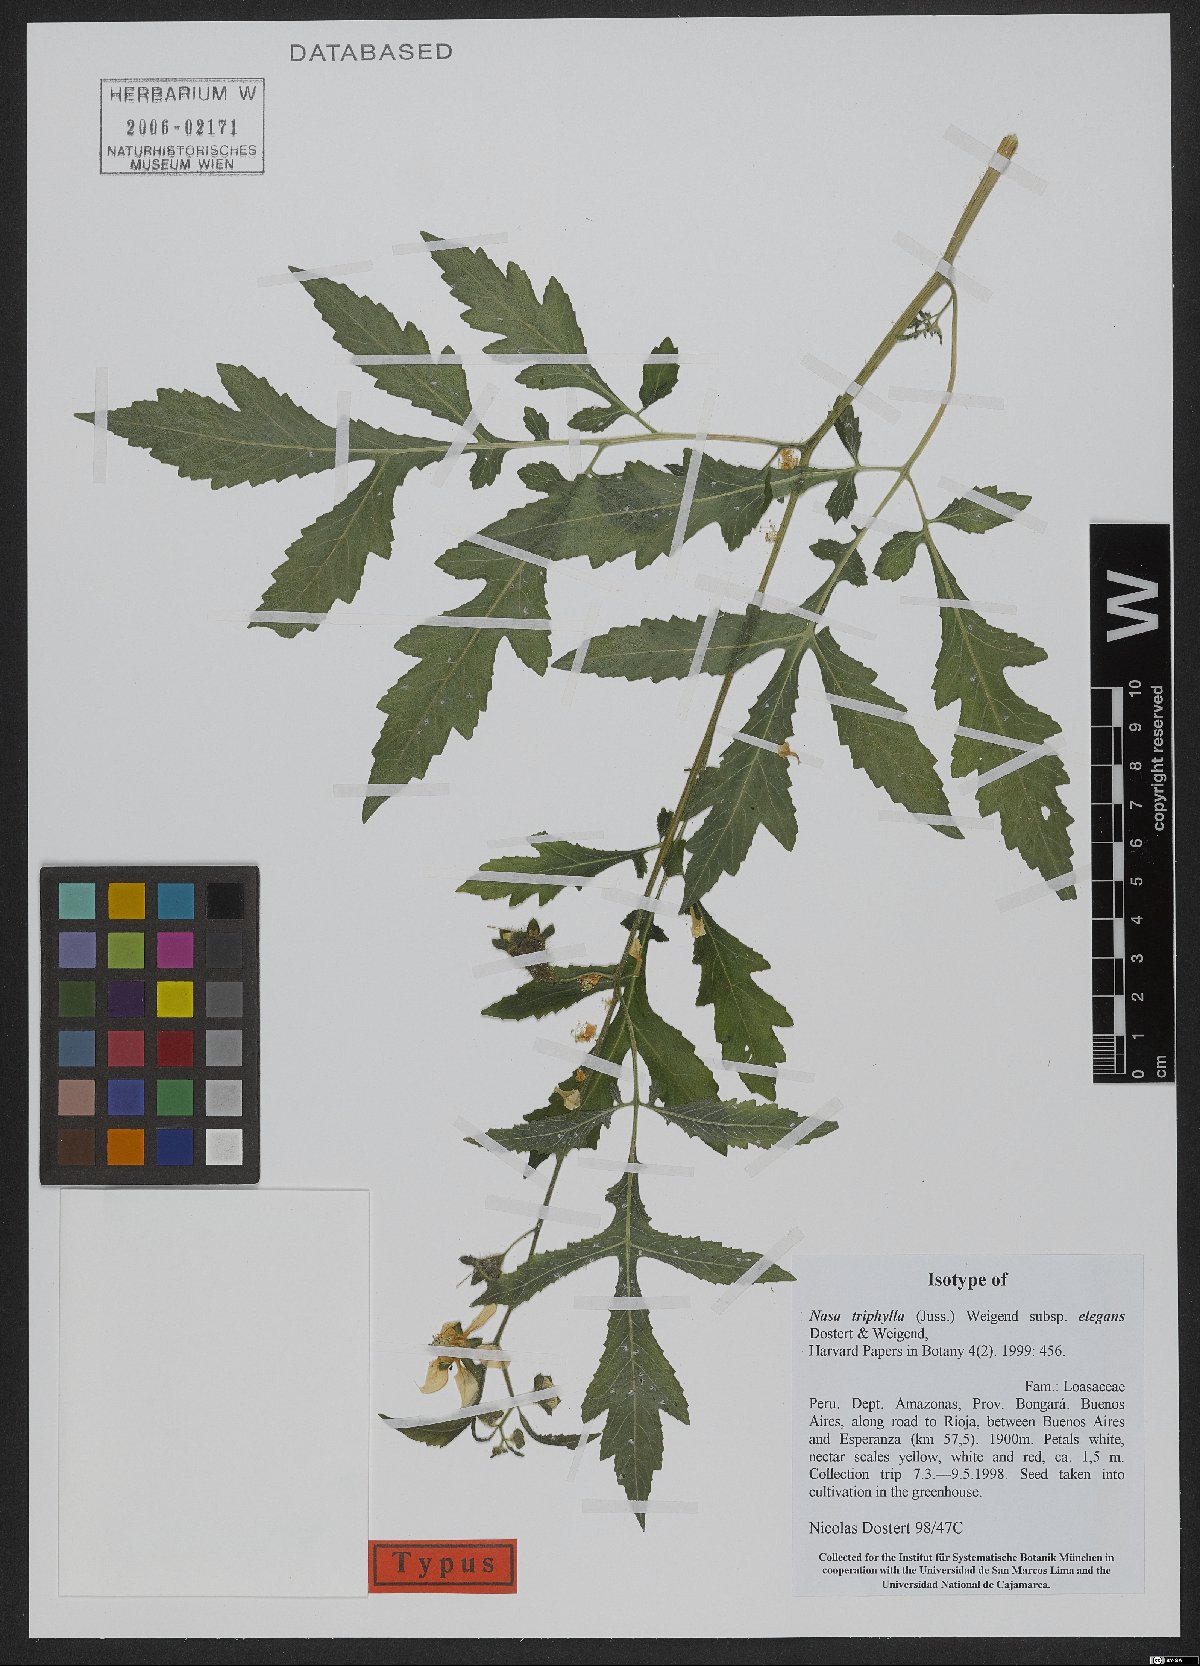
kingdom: Plantae
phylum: Tracheophyta
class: Magnoliopsida
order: Cornales
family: Loasaceae
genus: Nasa
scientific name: Nasa triphylla
